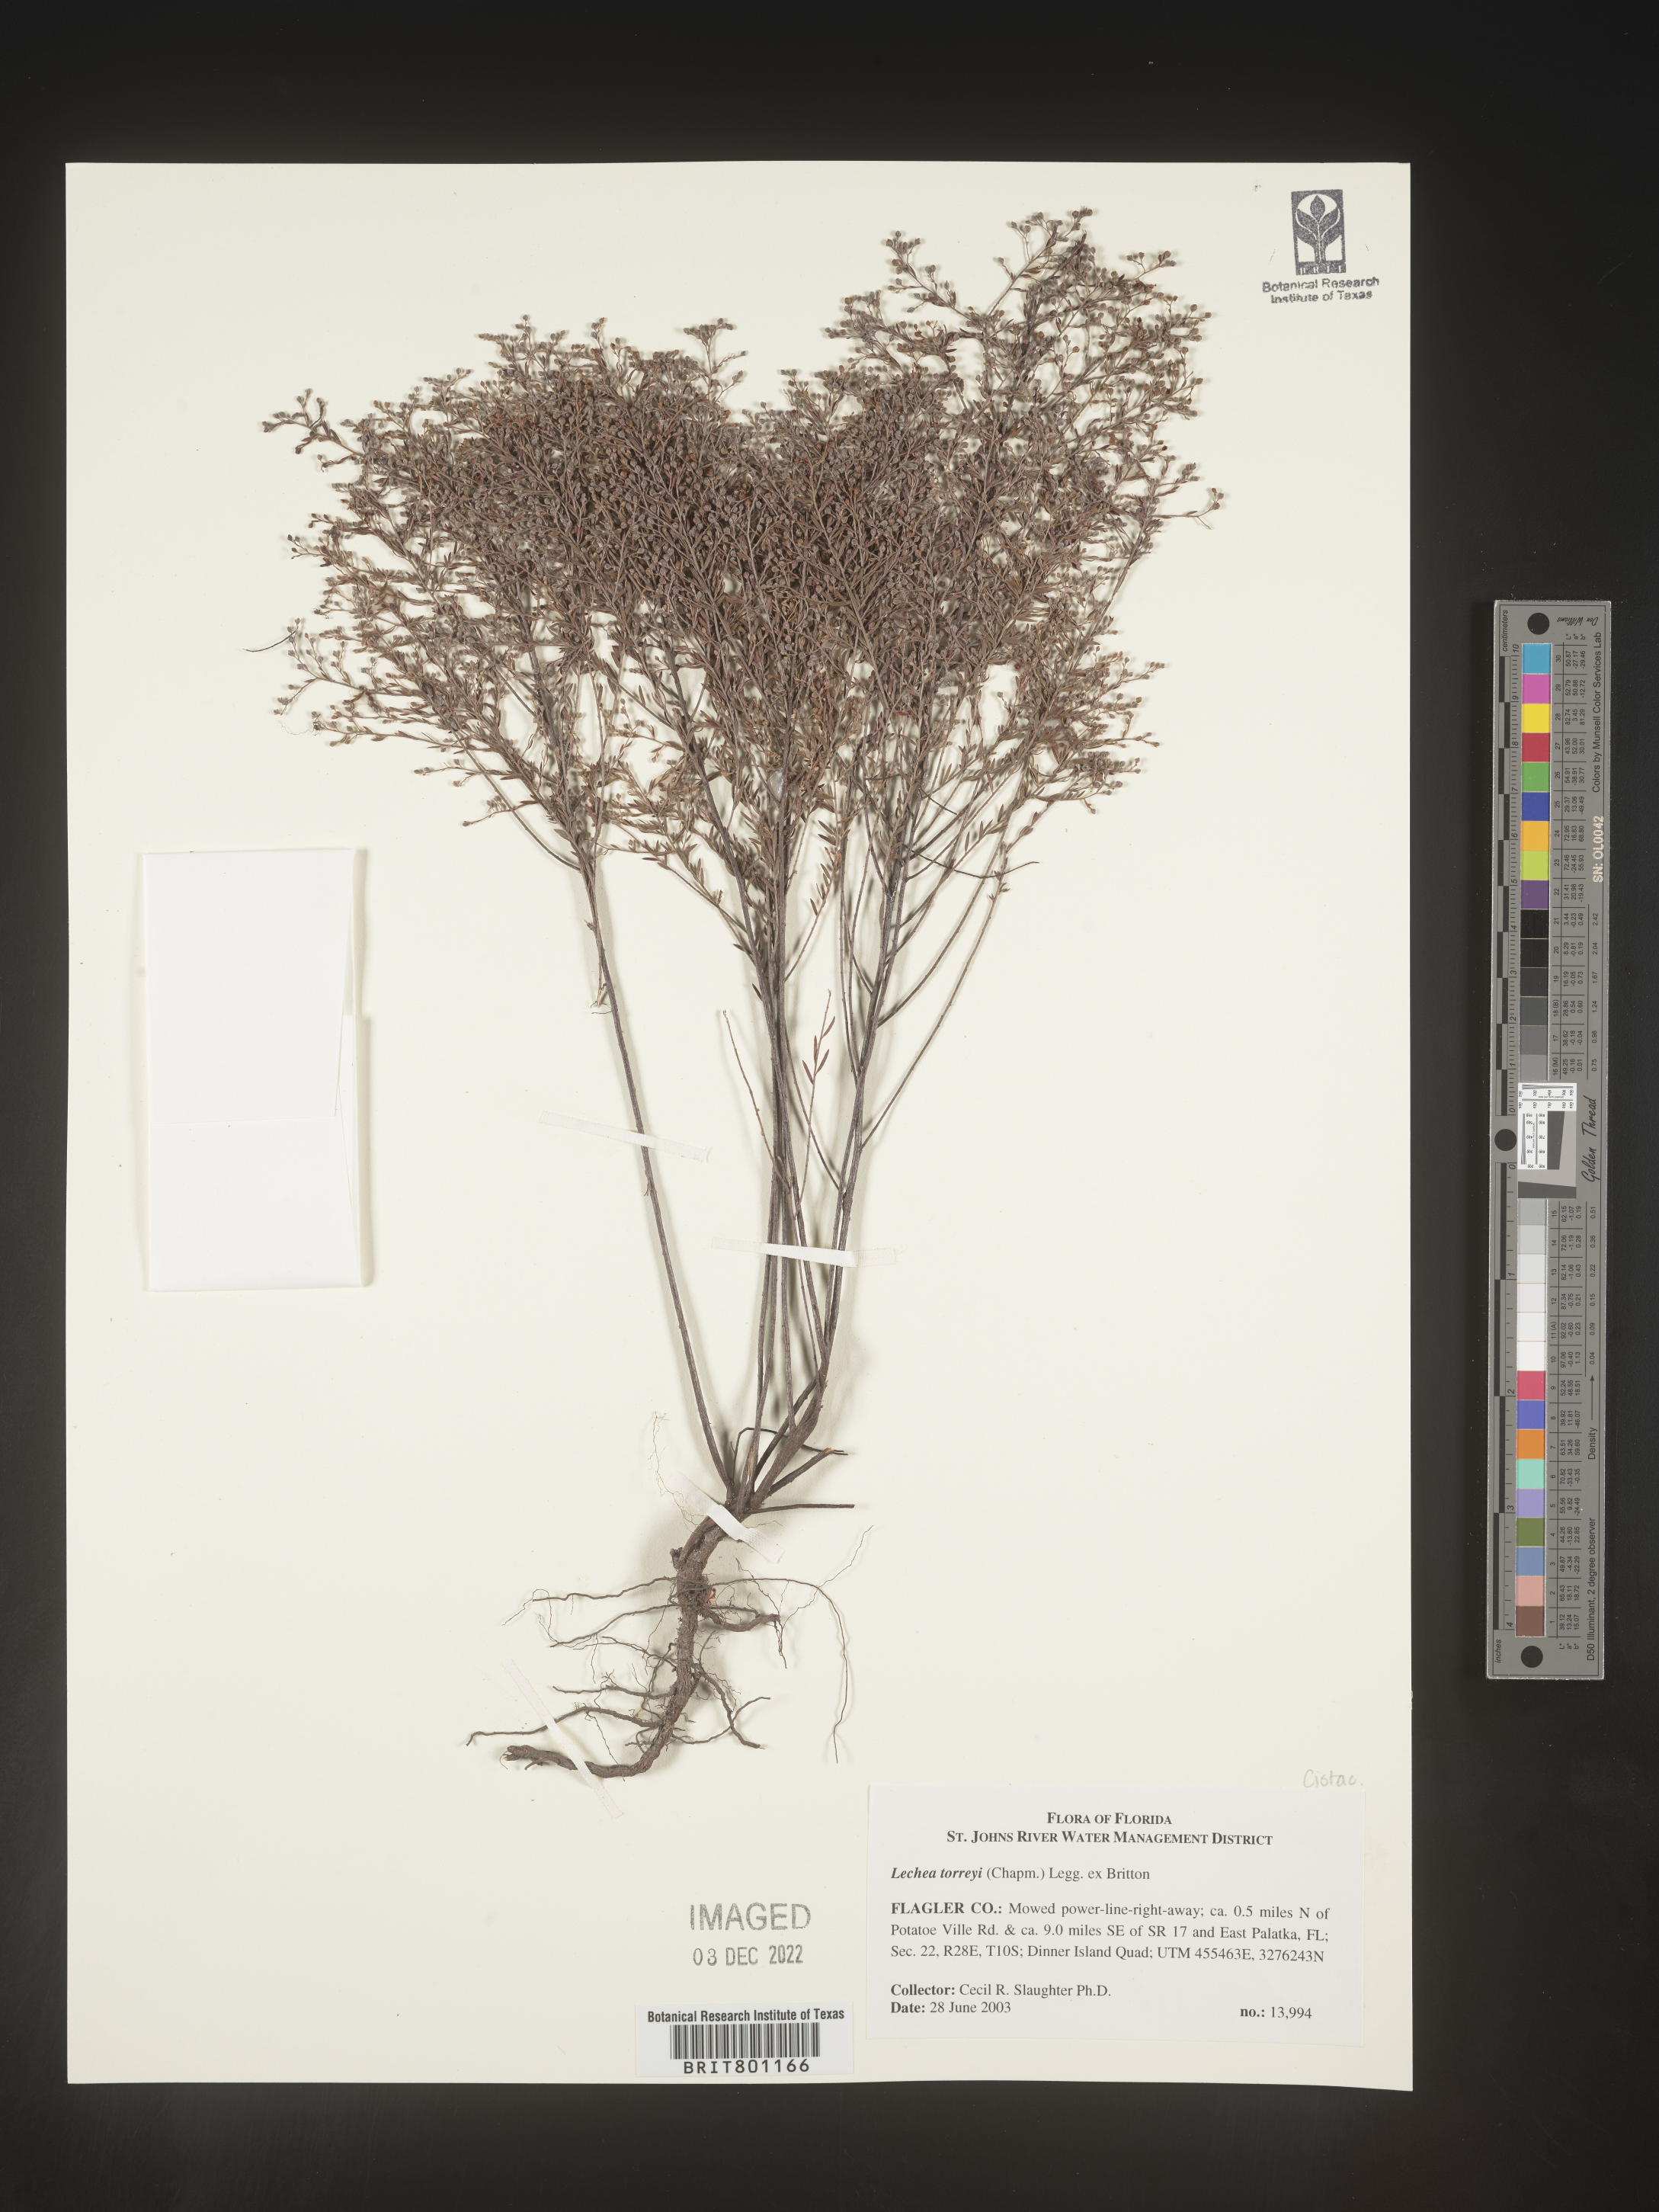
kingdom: Plantae
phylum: Tracheophyta
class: Magnoliopsida
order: Malvales
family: Cistaceae
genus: Lechea
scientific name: Lechea torreyi
